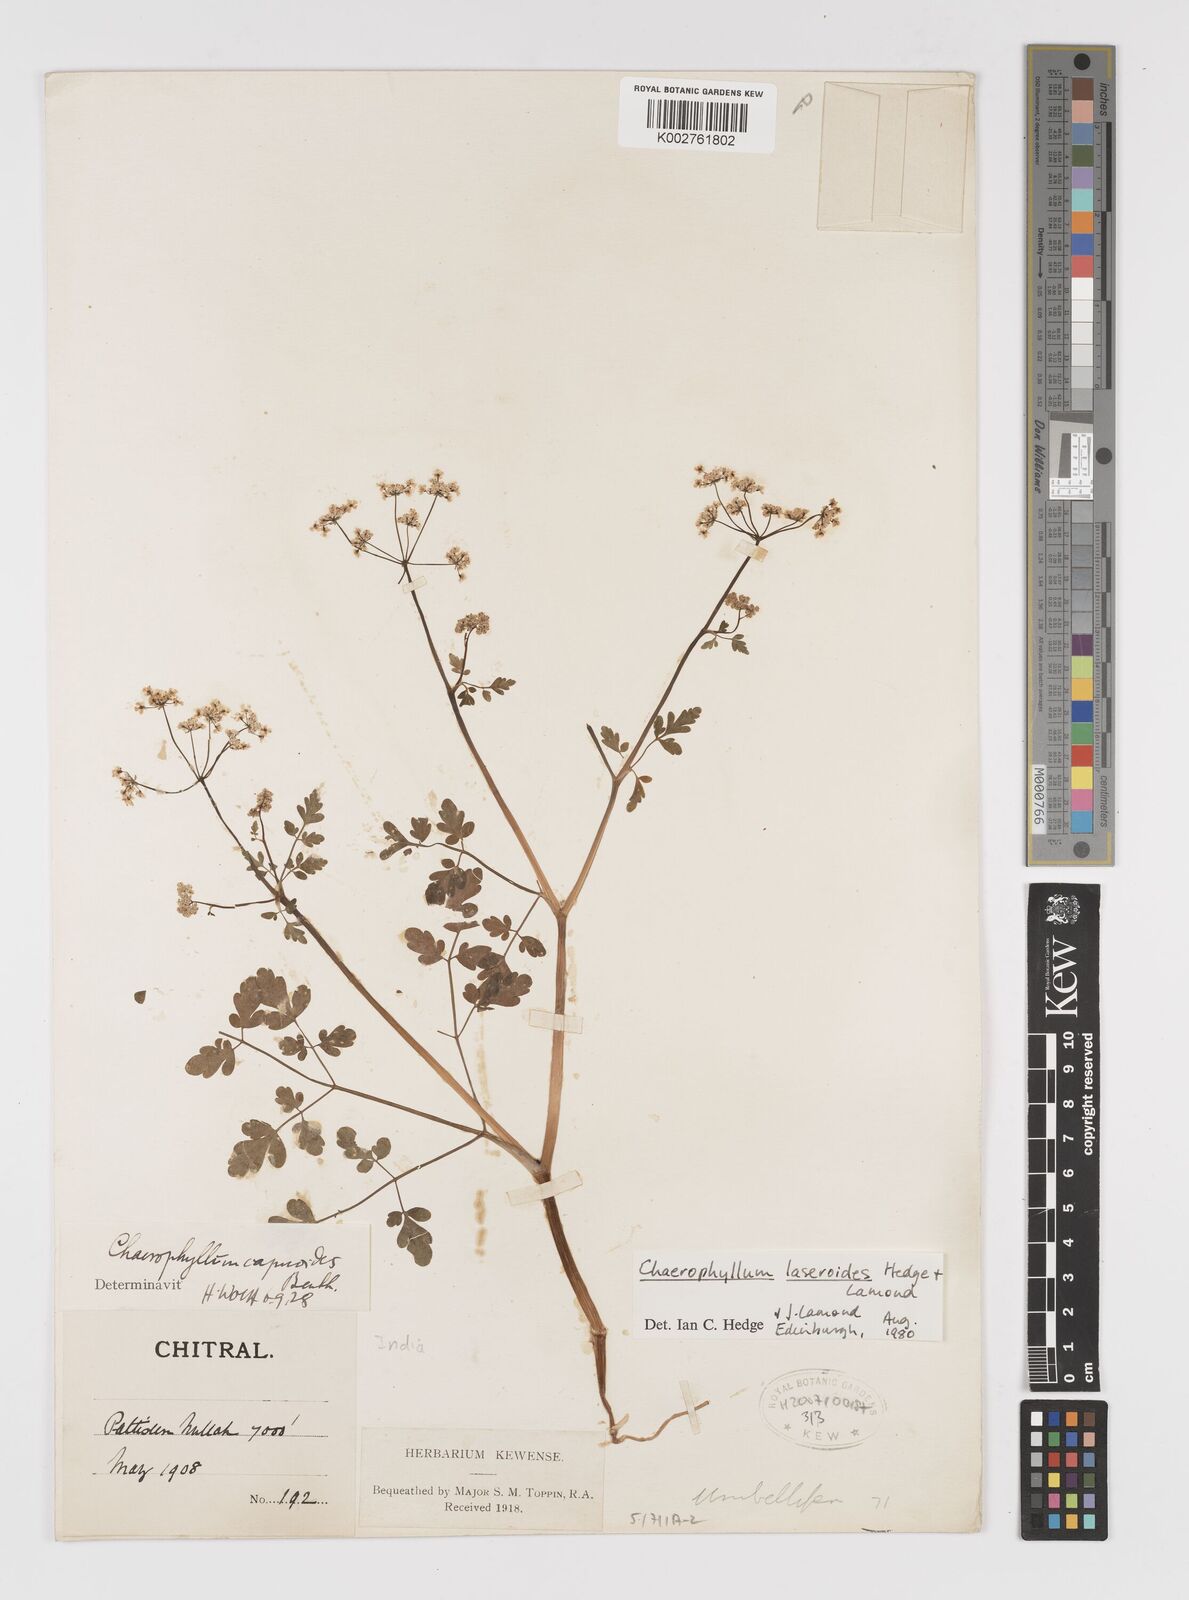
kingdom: Plantae
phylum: Tracheophyta
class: Magnoliopsida
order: Apiales
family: Apiaceae
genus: Kozlovia
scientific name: Kozlovia laseroides
